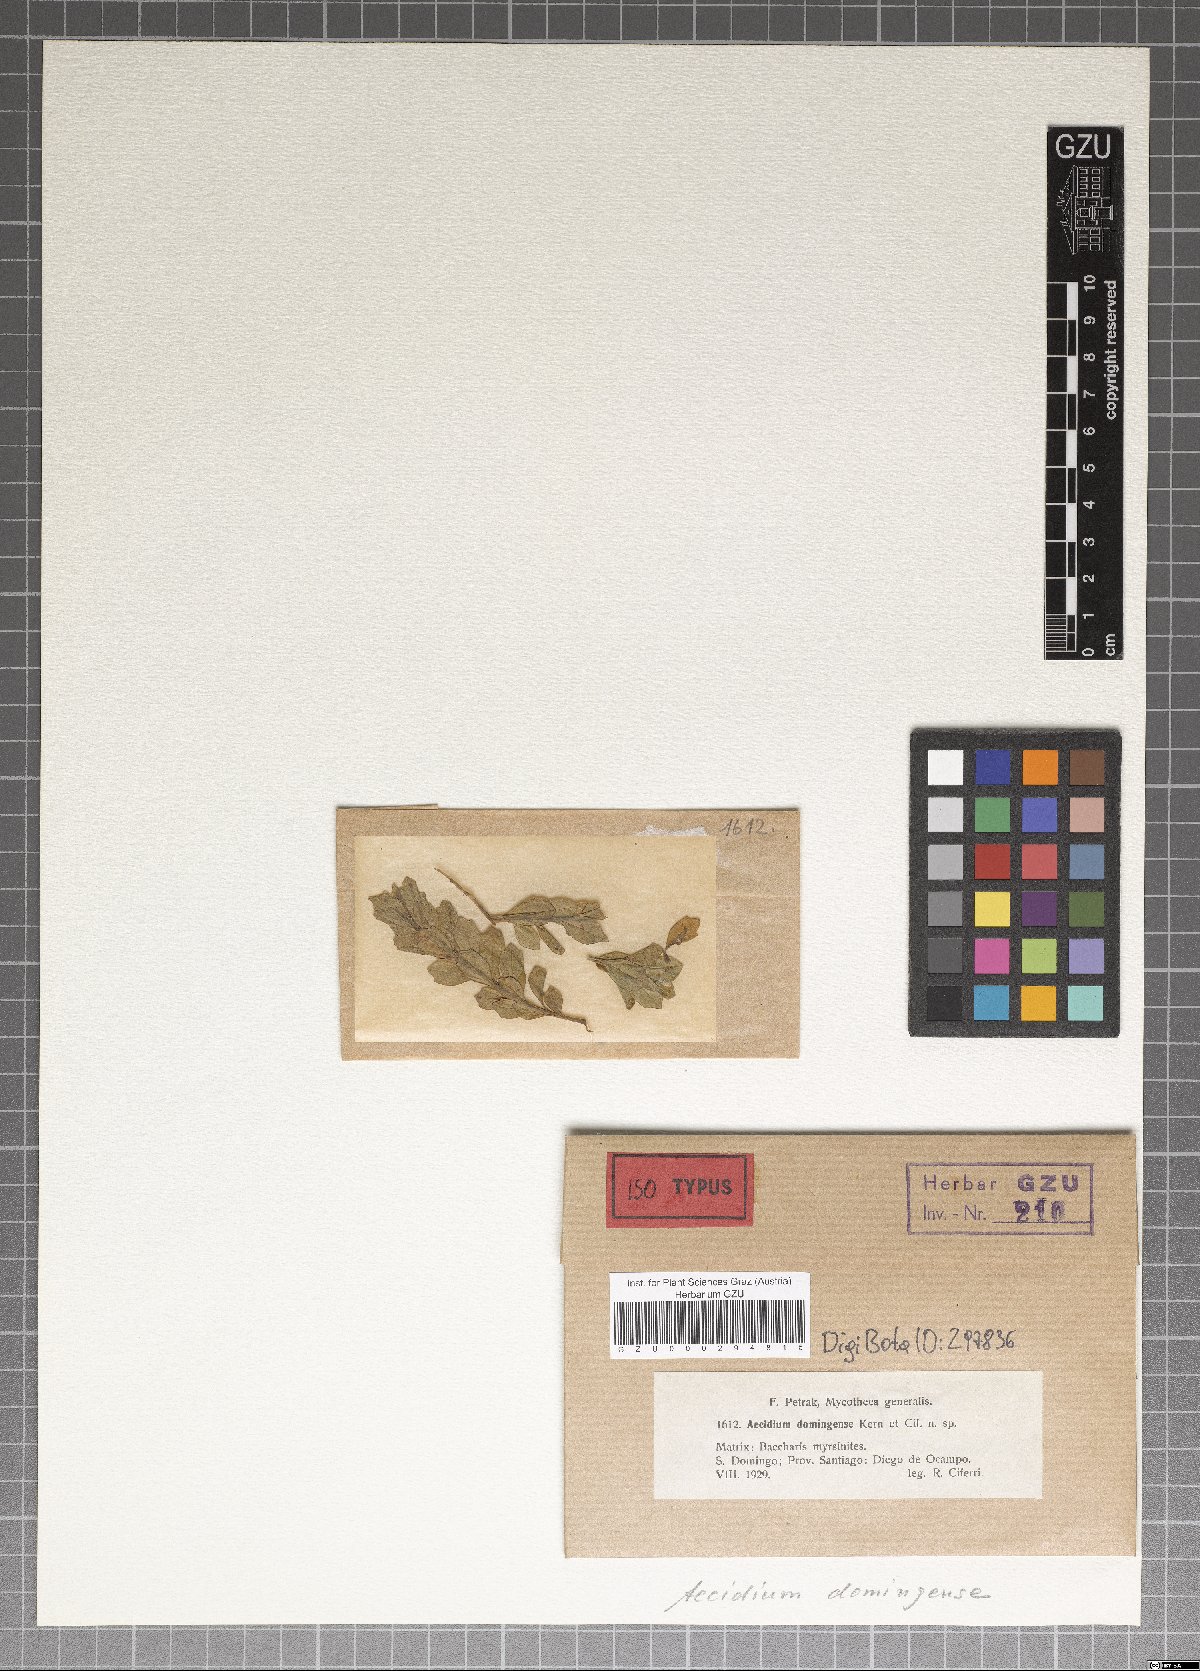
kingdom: Fungi
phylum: Basidiomycota
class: Pucciniomycetes
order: Pucciniales
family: Pucciniaceae
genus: Aecidium
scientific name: Aecidium domingense
